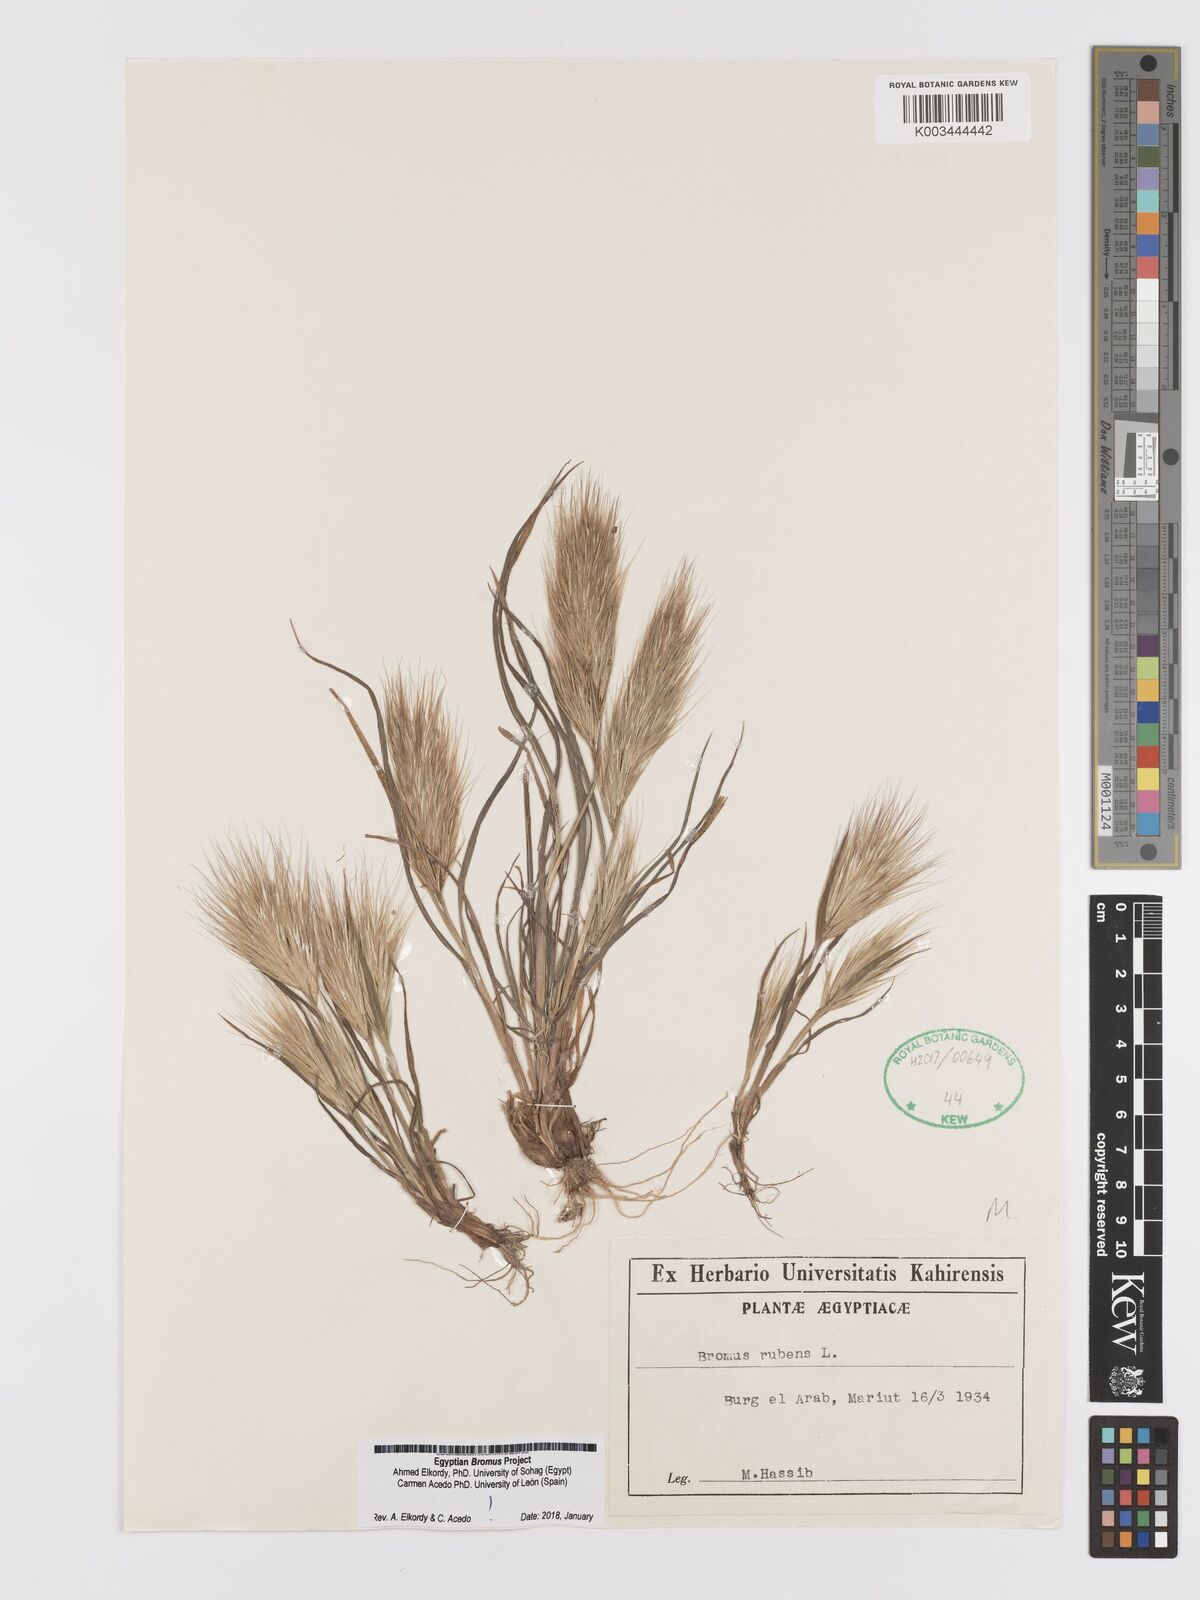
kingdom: Plantae
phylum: Tracheophyta
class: Liliopsida
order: Poales
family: Poaceae
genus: Bromus
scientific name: Bromus rubens
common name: Red brome
